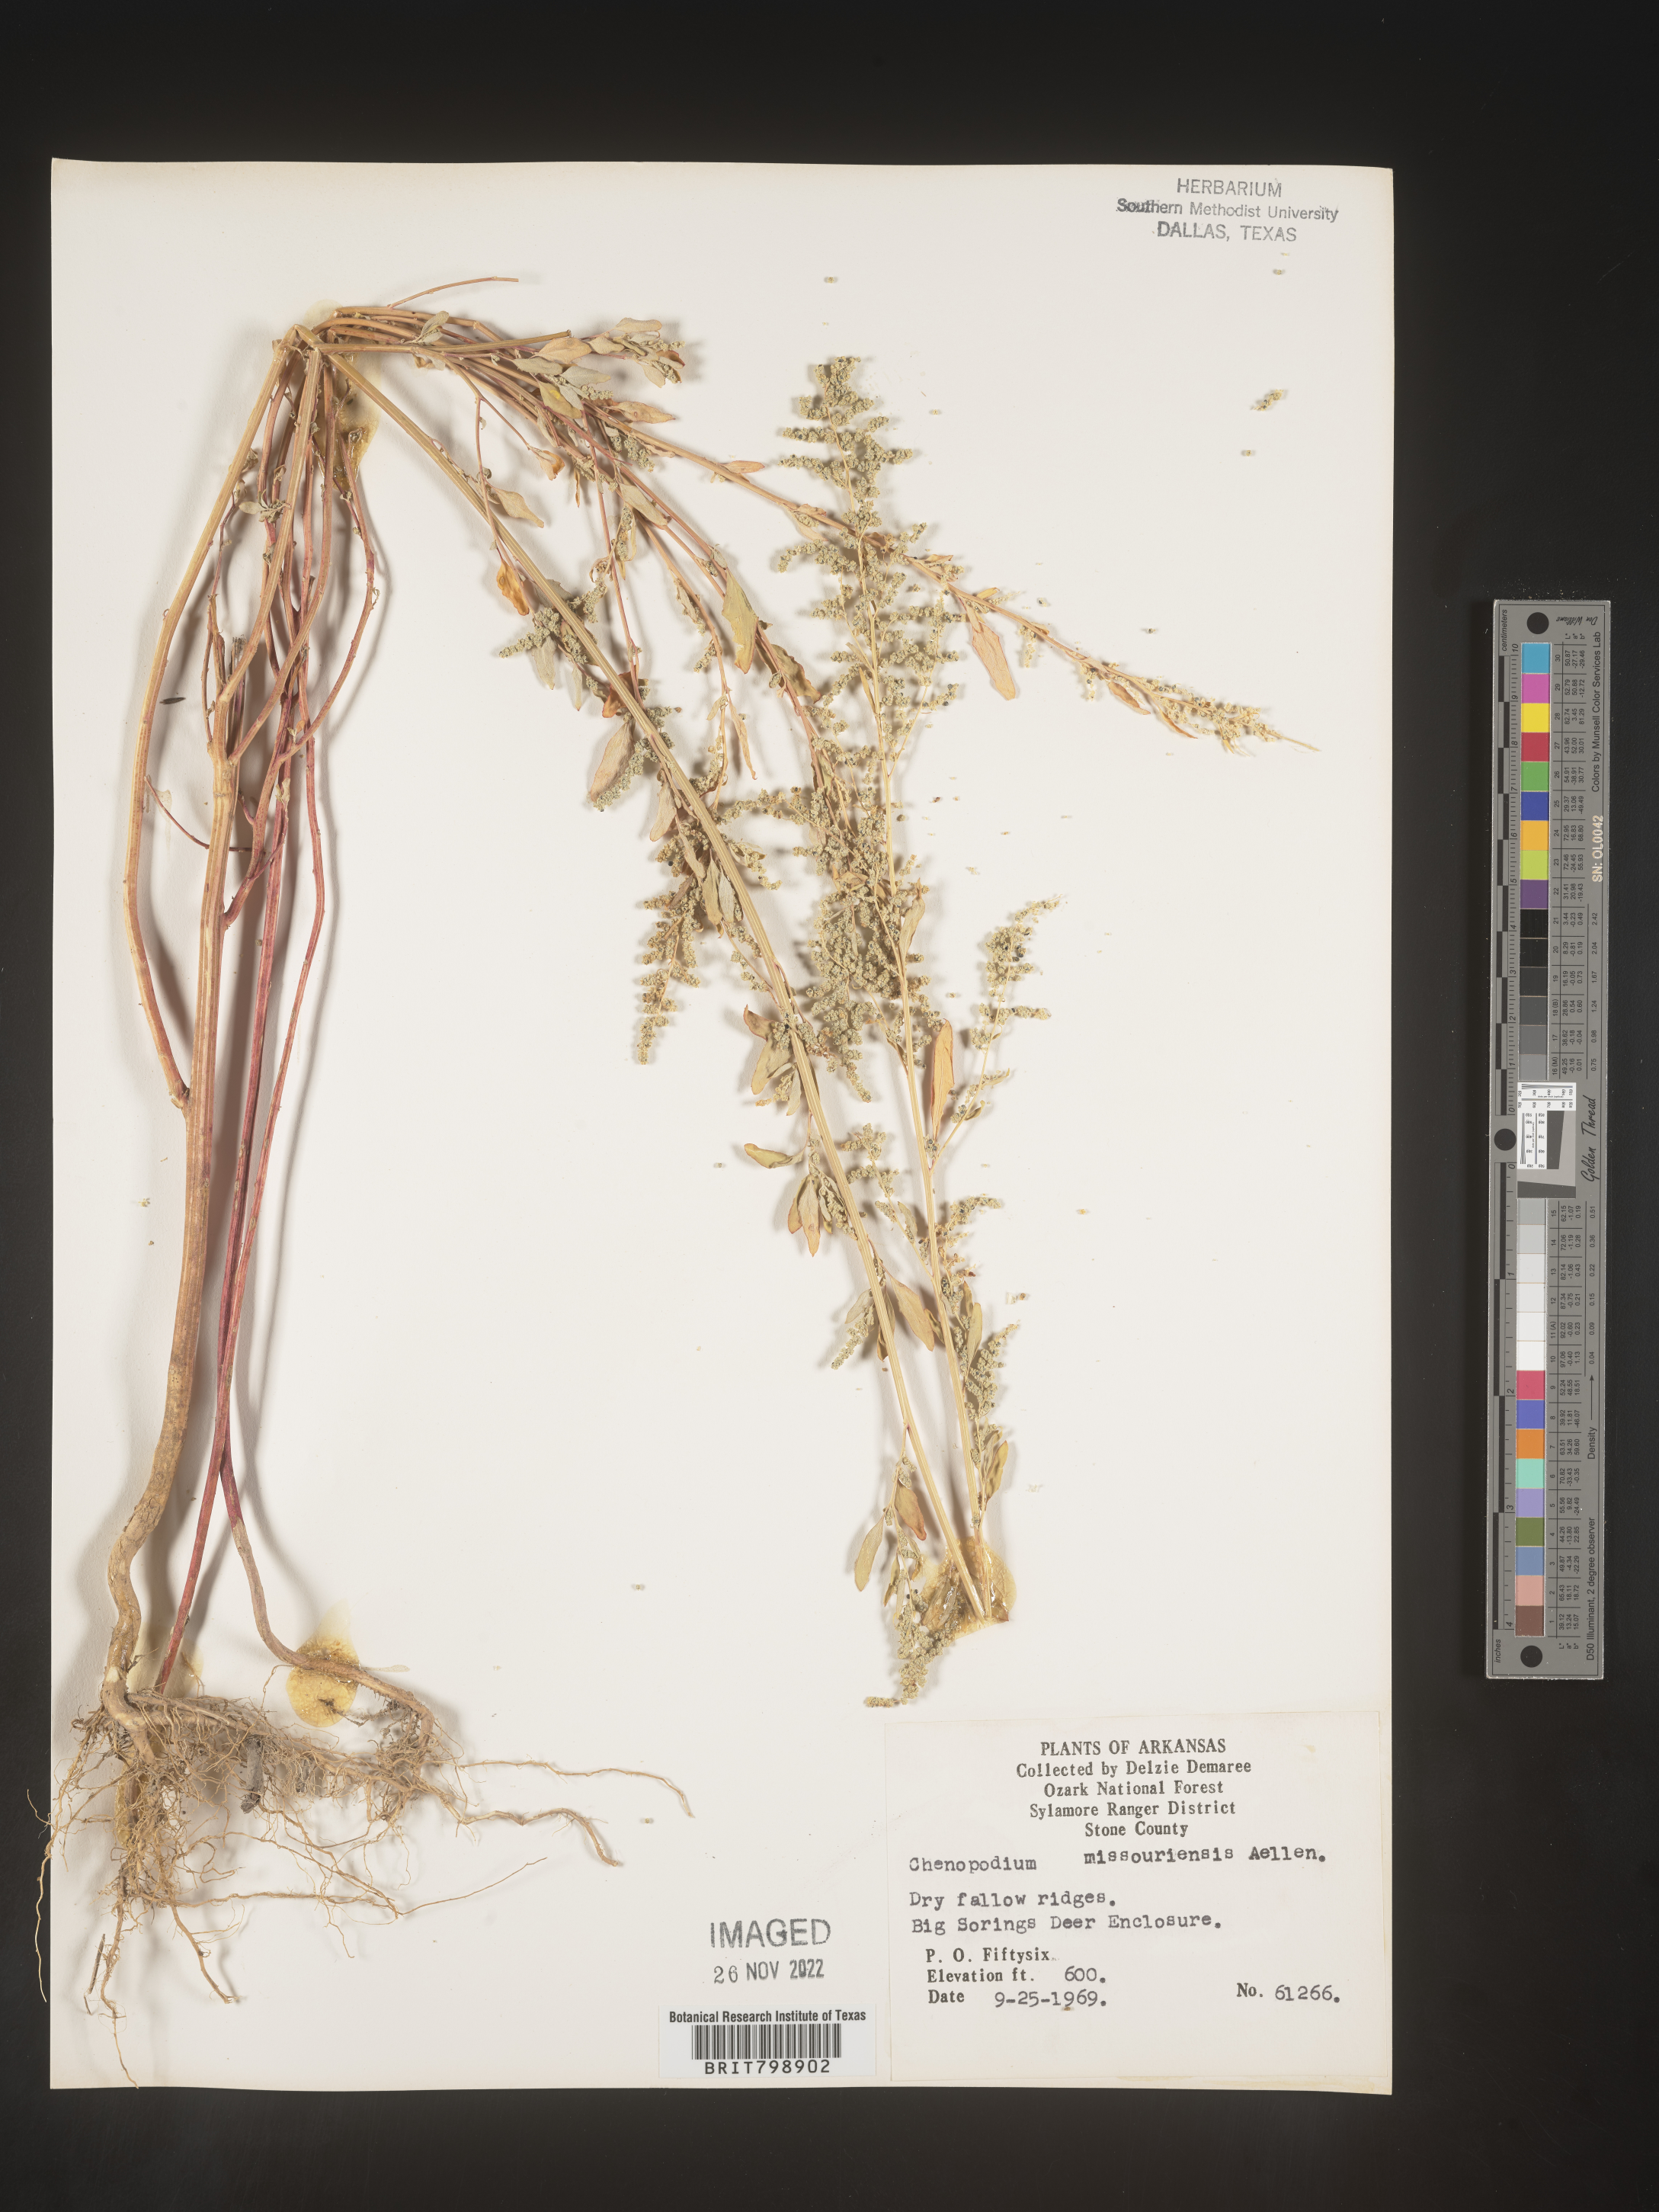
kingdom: Plantae
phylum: Tracheophyta
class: Magnoliopsida
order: Caryophyllales
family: Amaranthaceae
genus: Chenopodium
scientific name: Chenopodium album
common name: Fat-hen
